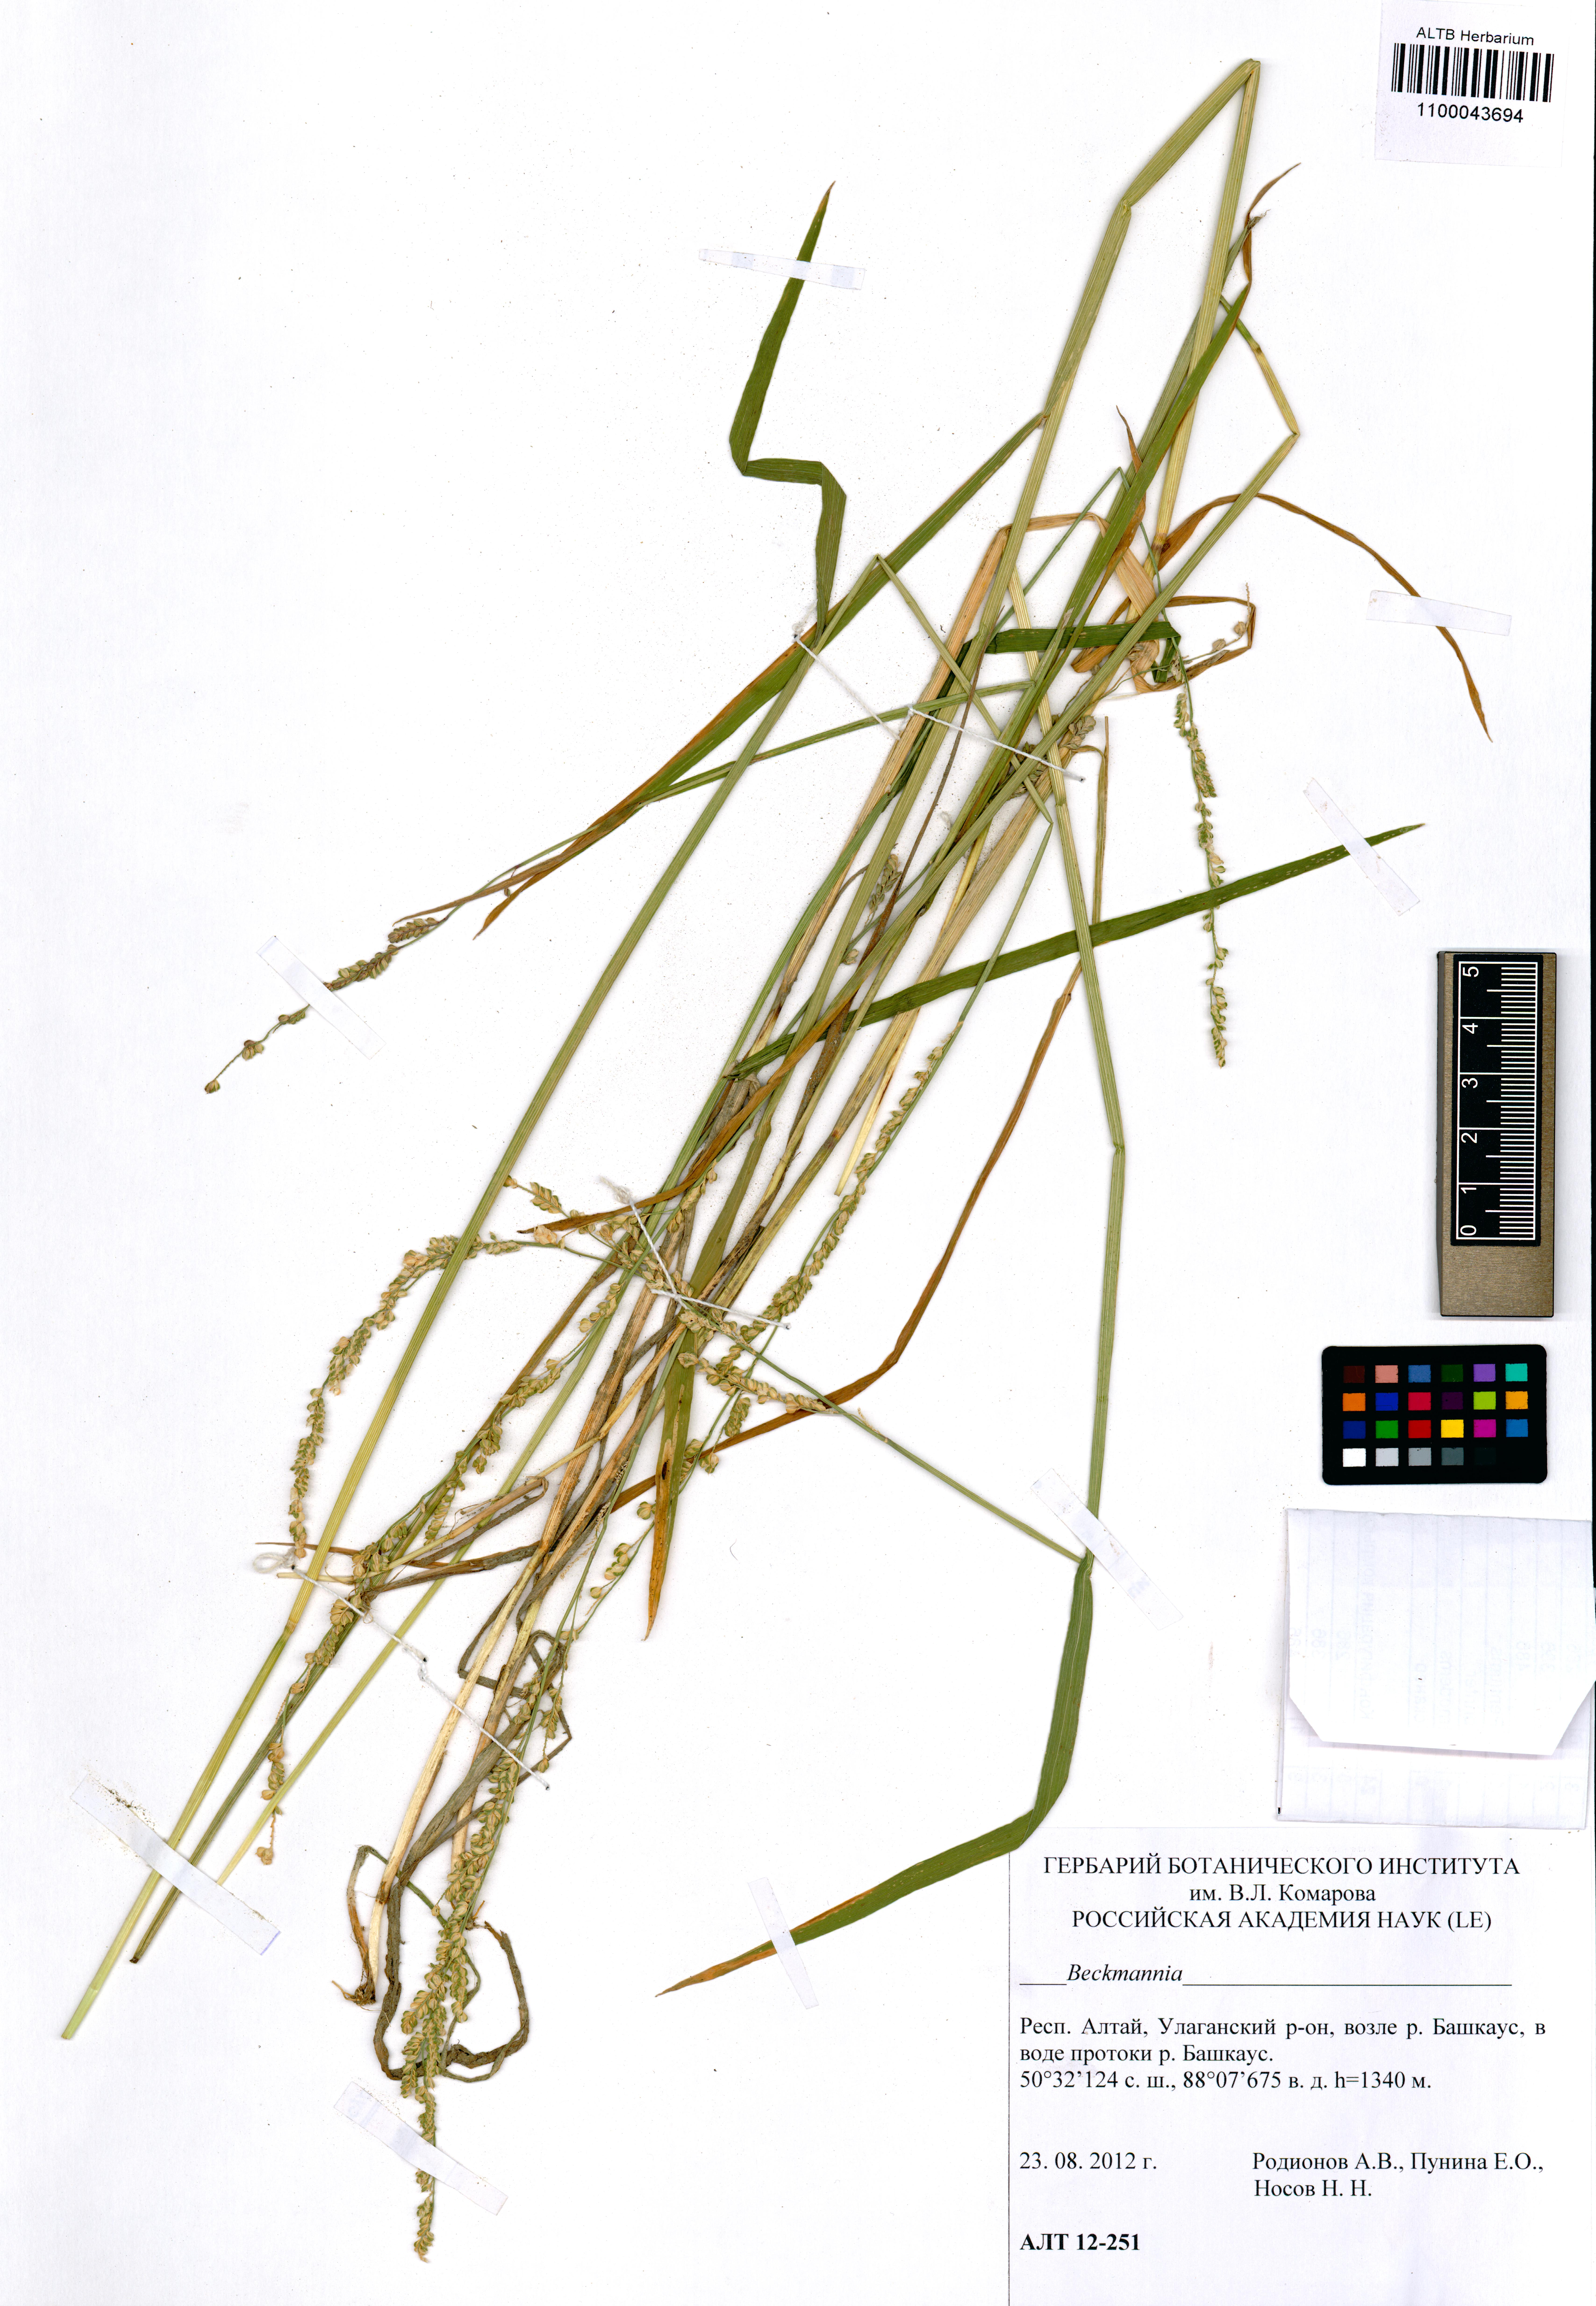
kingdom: Plantae
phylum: Tracheophyta
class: Liliopsida
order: Poales
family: Poaceae
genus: Beckmannia
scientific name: Beckmannia syzigachne
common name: American slough-grass
